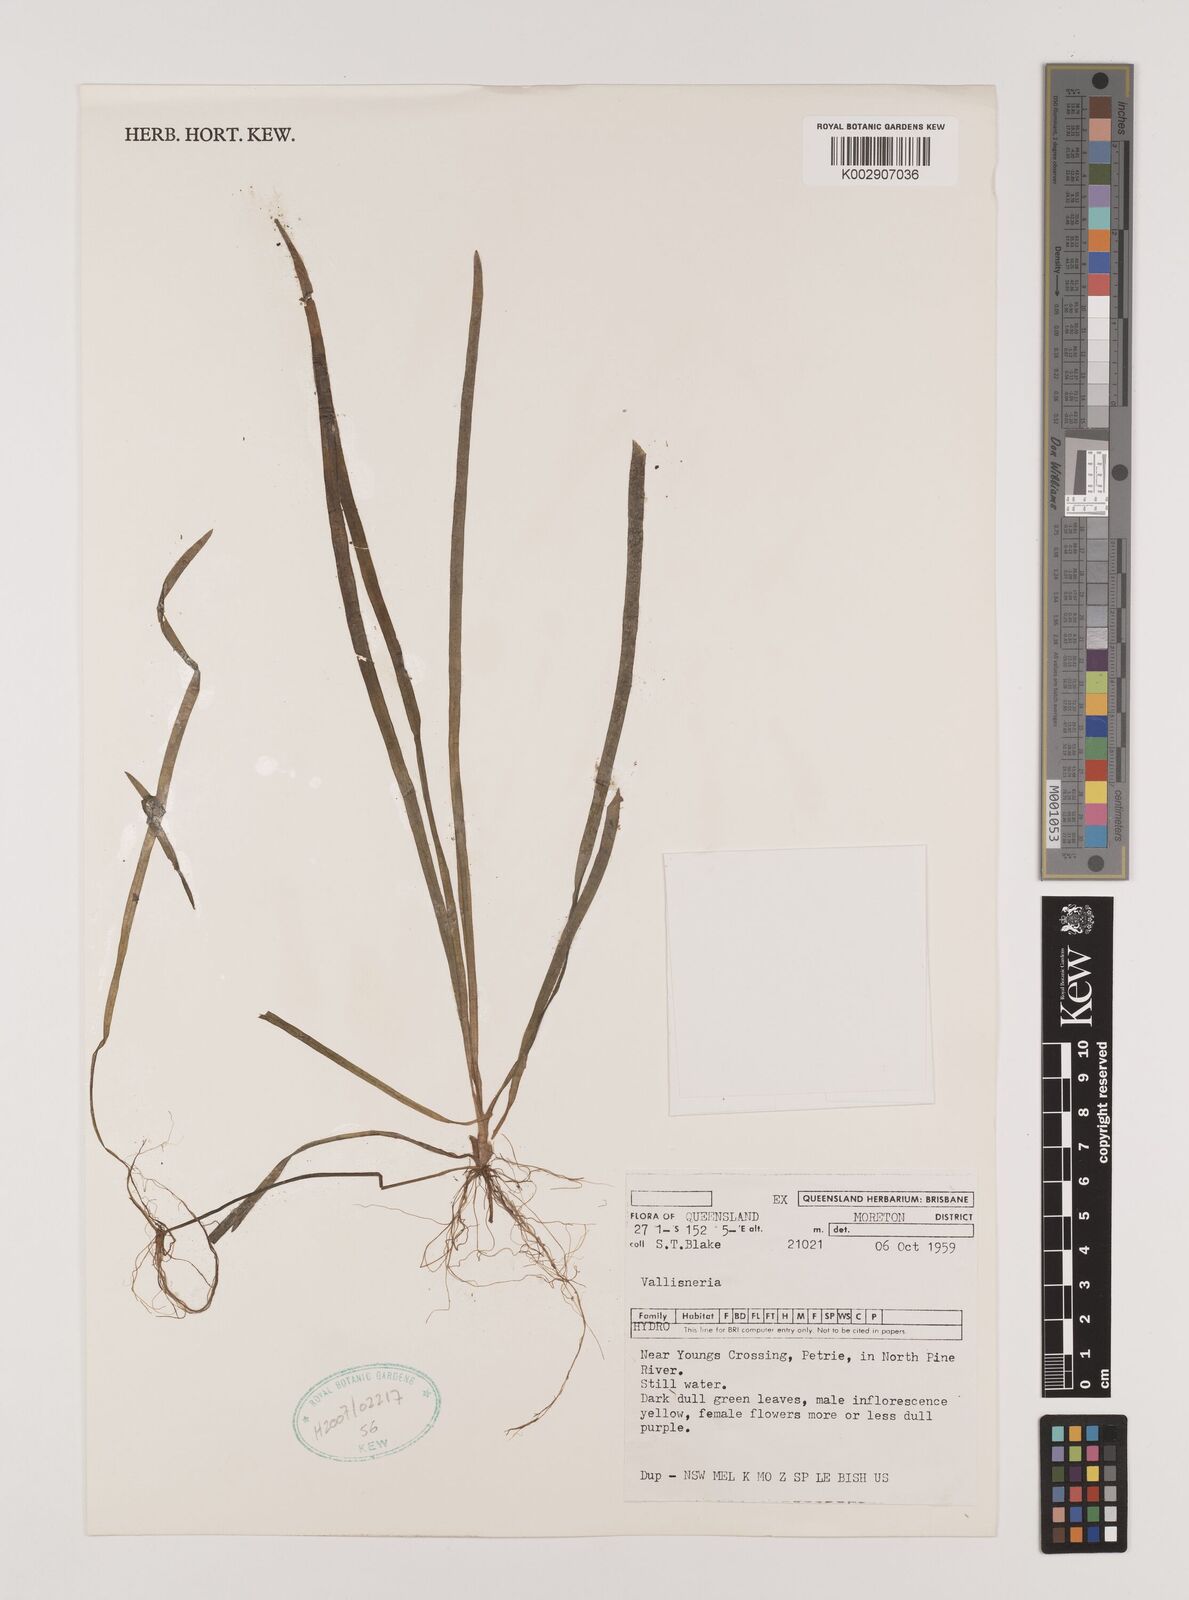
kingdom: Plantae
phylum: Tracheophyta
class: Liliopsida
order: Alismatales
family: Hydrocharitaceae
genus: Vallisneria
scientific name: Vallisneria
